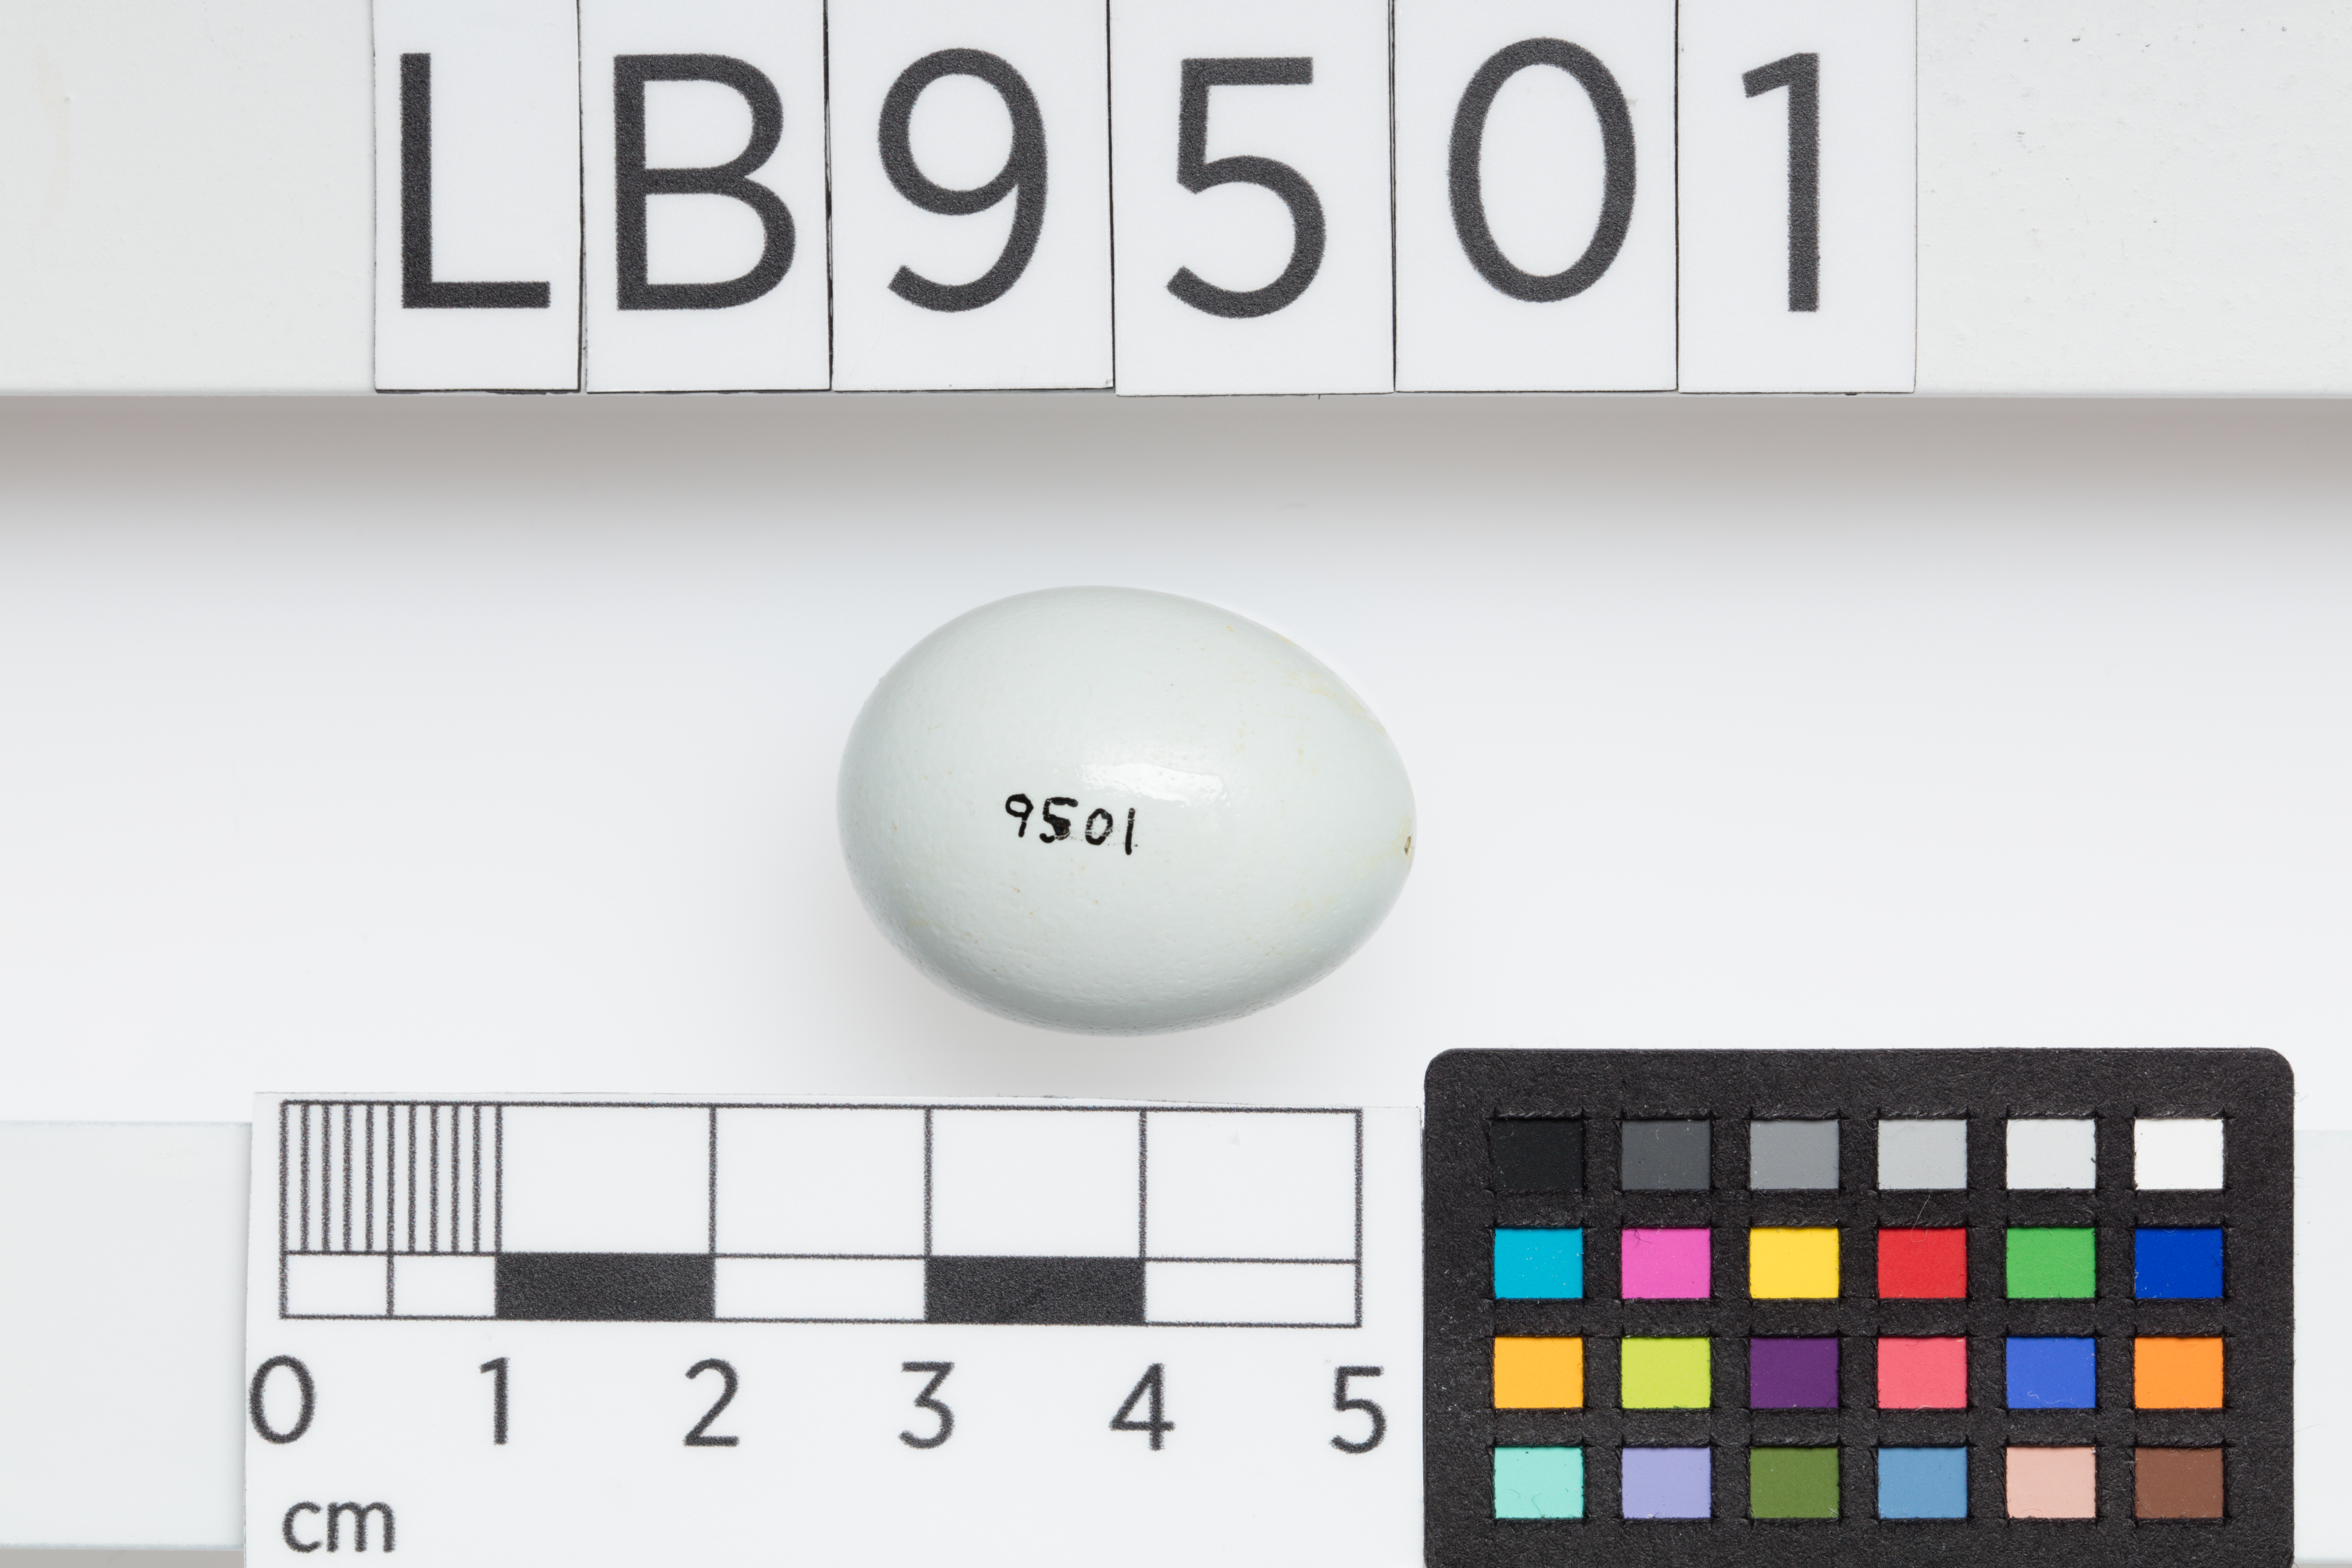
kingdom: Animalia
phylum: Chordata
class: Aves
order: Passeriformes
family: Sturnidae
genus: Acridotheres
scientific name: Acridotheres tristis
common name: Common myna
